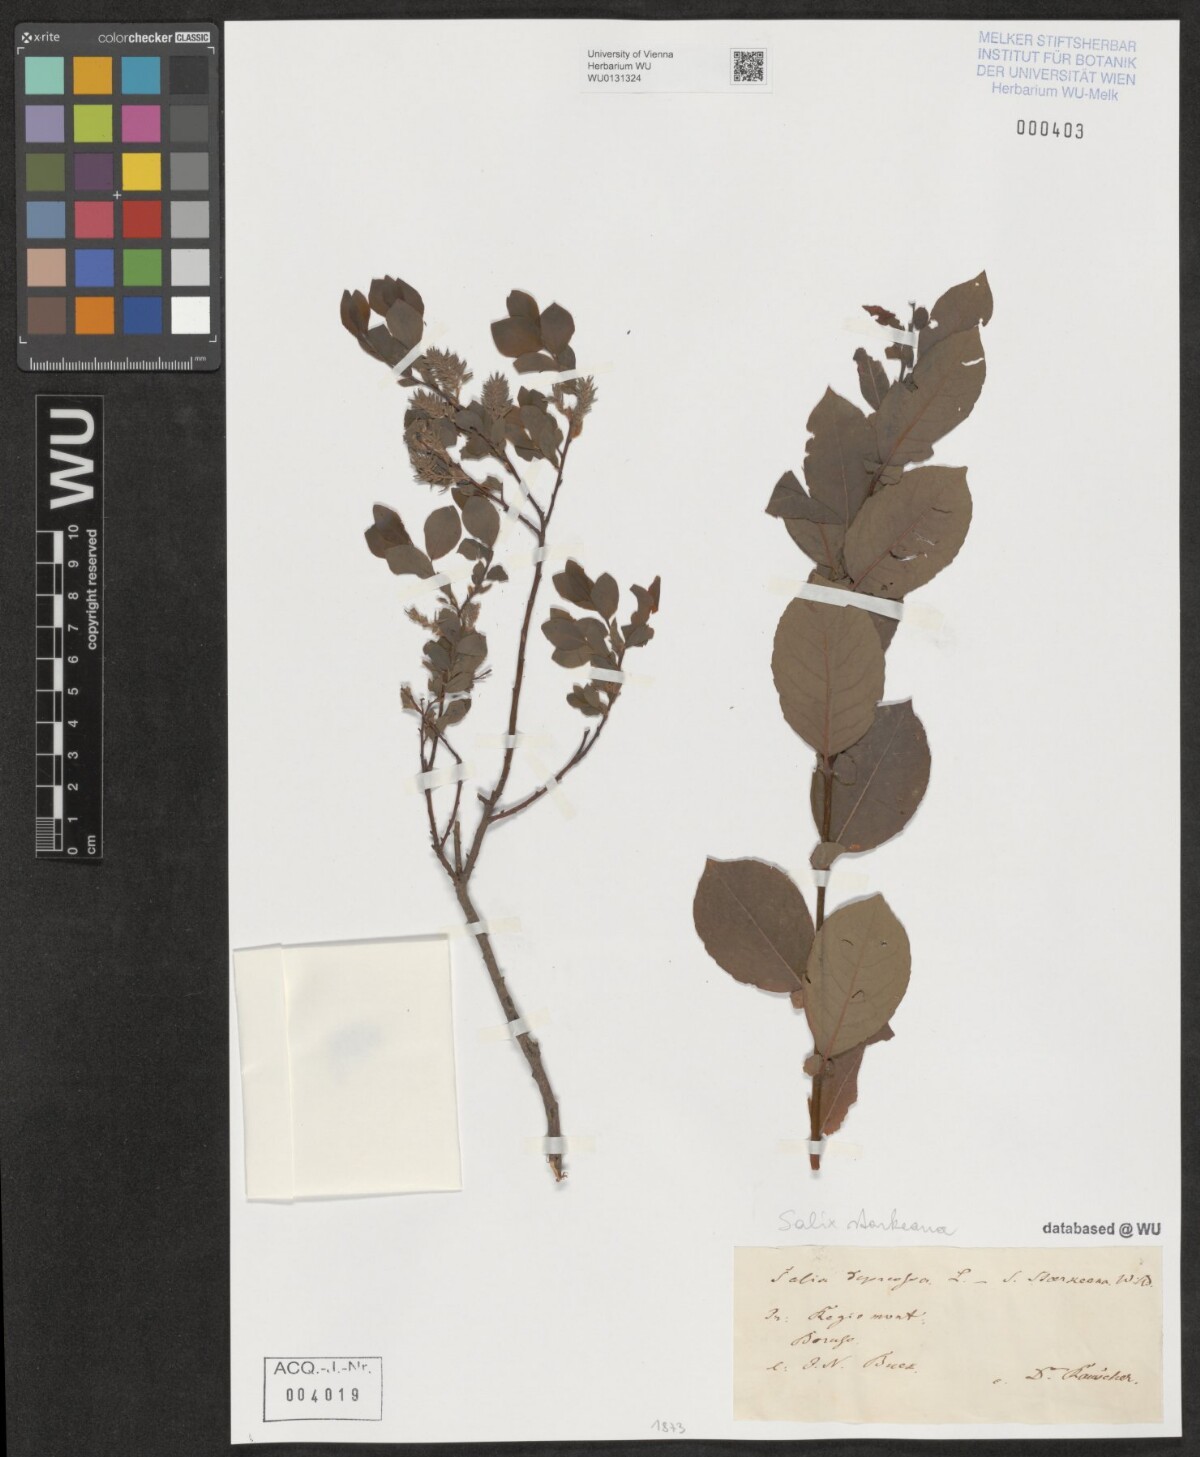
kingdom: Plantae
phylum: Tracheophyta
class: Magnoliopsida
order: Malpighiales
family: Salicaceae
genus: Salix
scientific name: Salix starkeana
